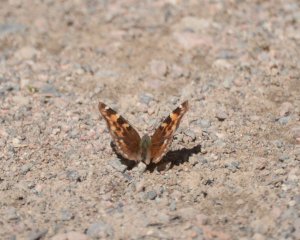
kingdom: Animalia
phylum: Arthropoda
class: Insecta
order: Lepidoptera
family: Nymphalidae
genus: Polygonia
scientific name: Polygonia vaualbum
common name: Compton Tortoiseshell
